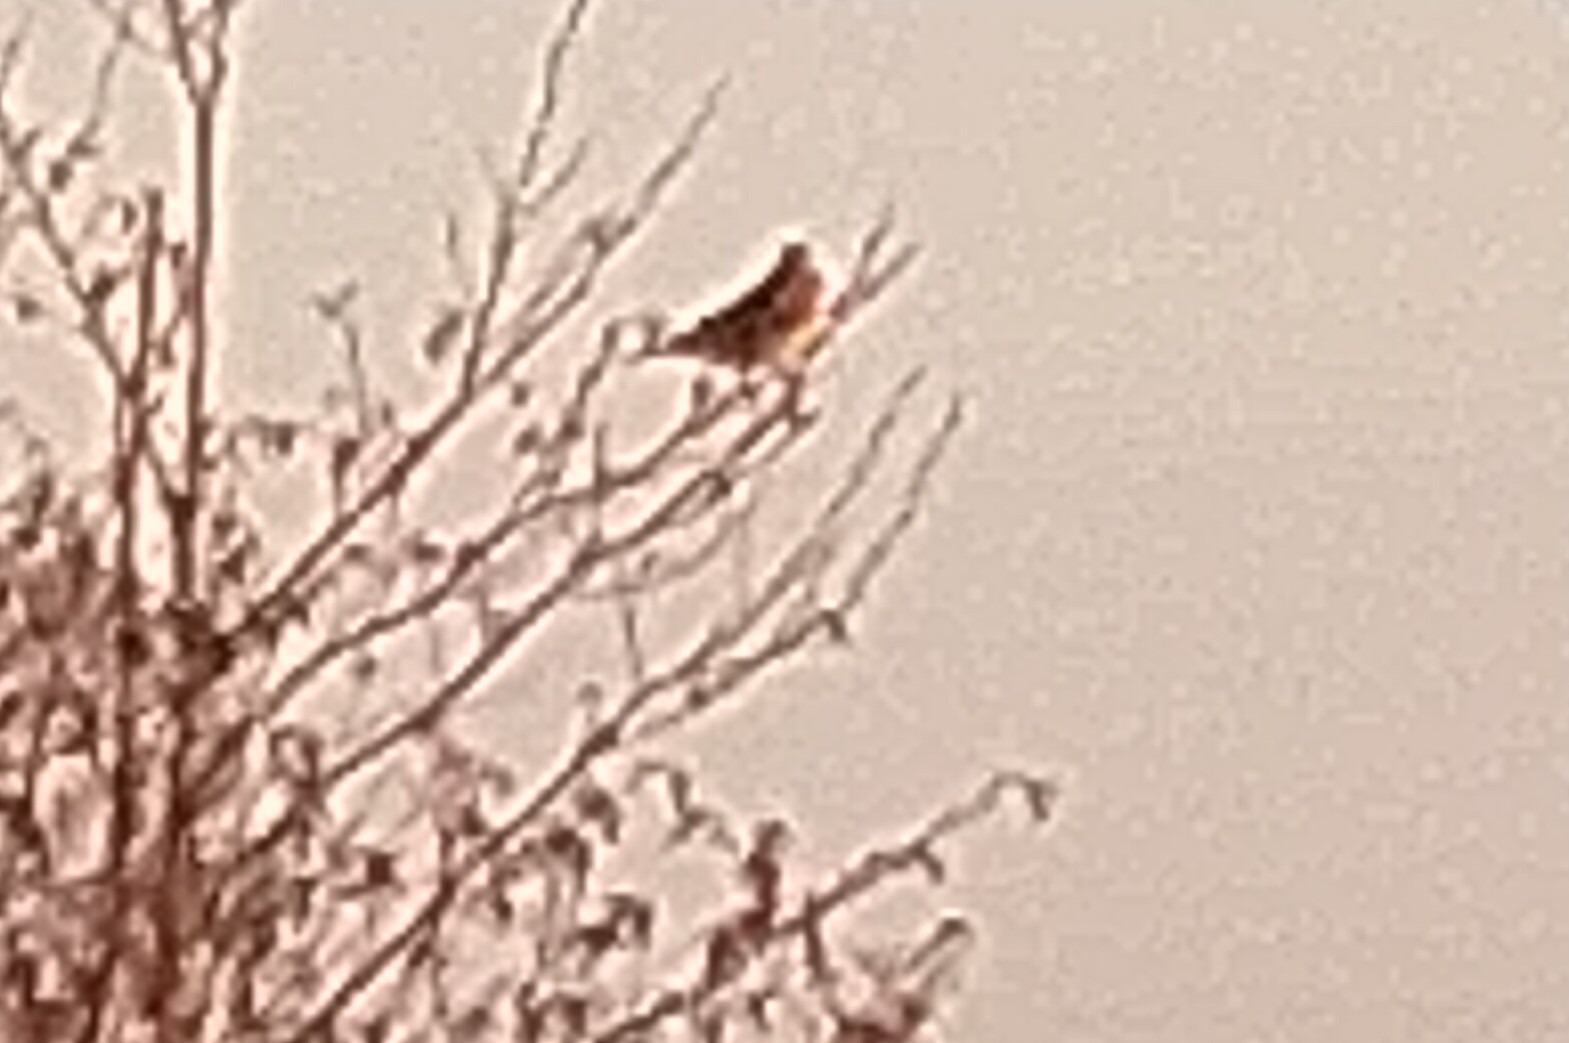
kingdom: Animalia
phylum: Chordata
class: Aves
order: Passeriformes
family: Turdidae
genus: Turdus
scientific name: Turdus pilaris
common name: Sjagger
